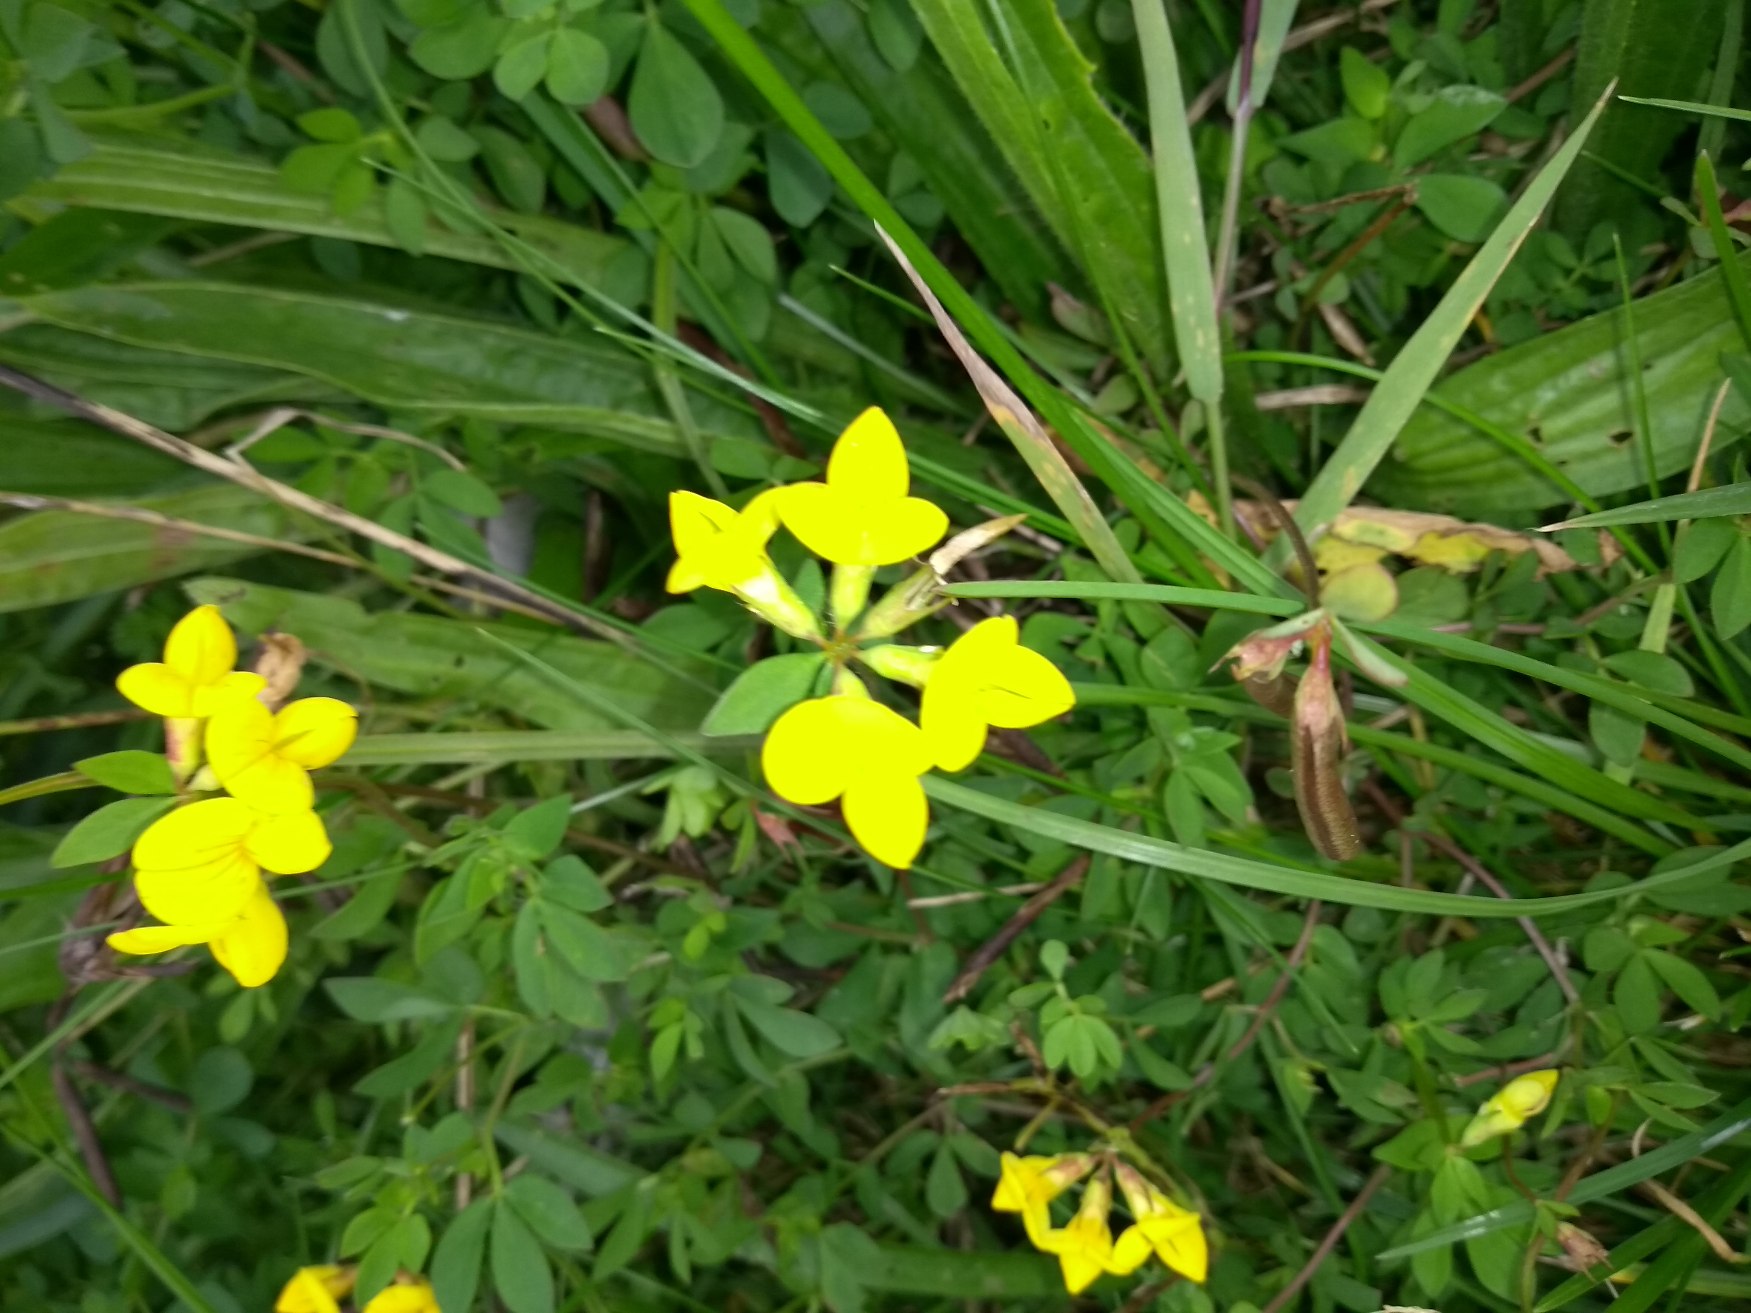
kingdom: Plantae
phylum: Tracheophyta
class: Magnoliopsida
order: Fabales
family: Fabaceae
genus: Lotus
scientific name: Lotus corniculatus
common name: Almindelig kællingetand
